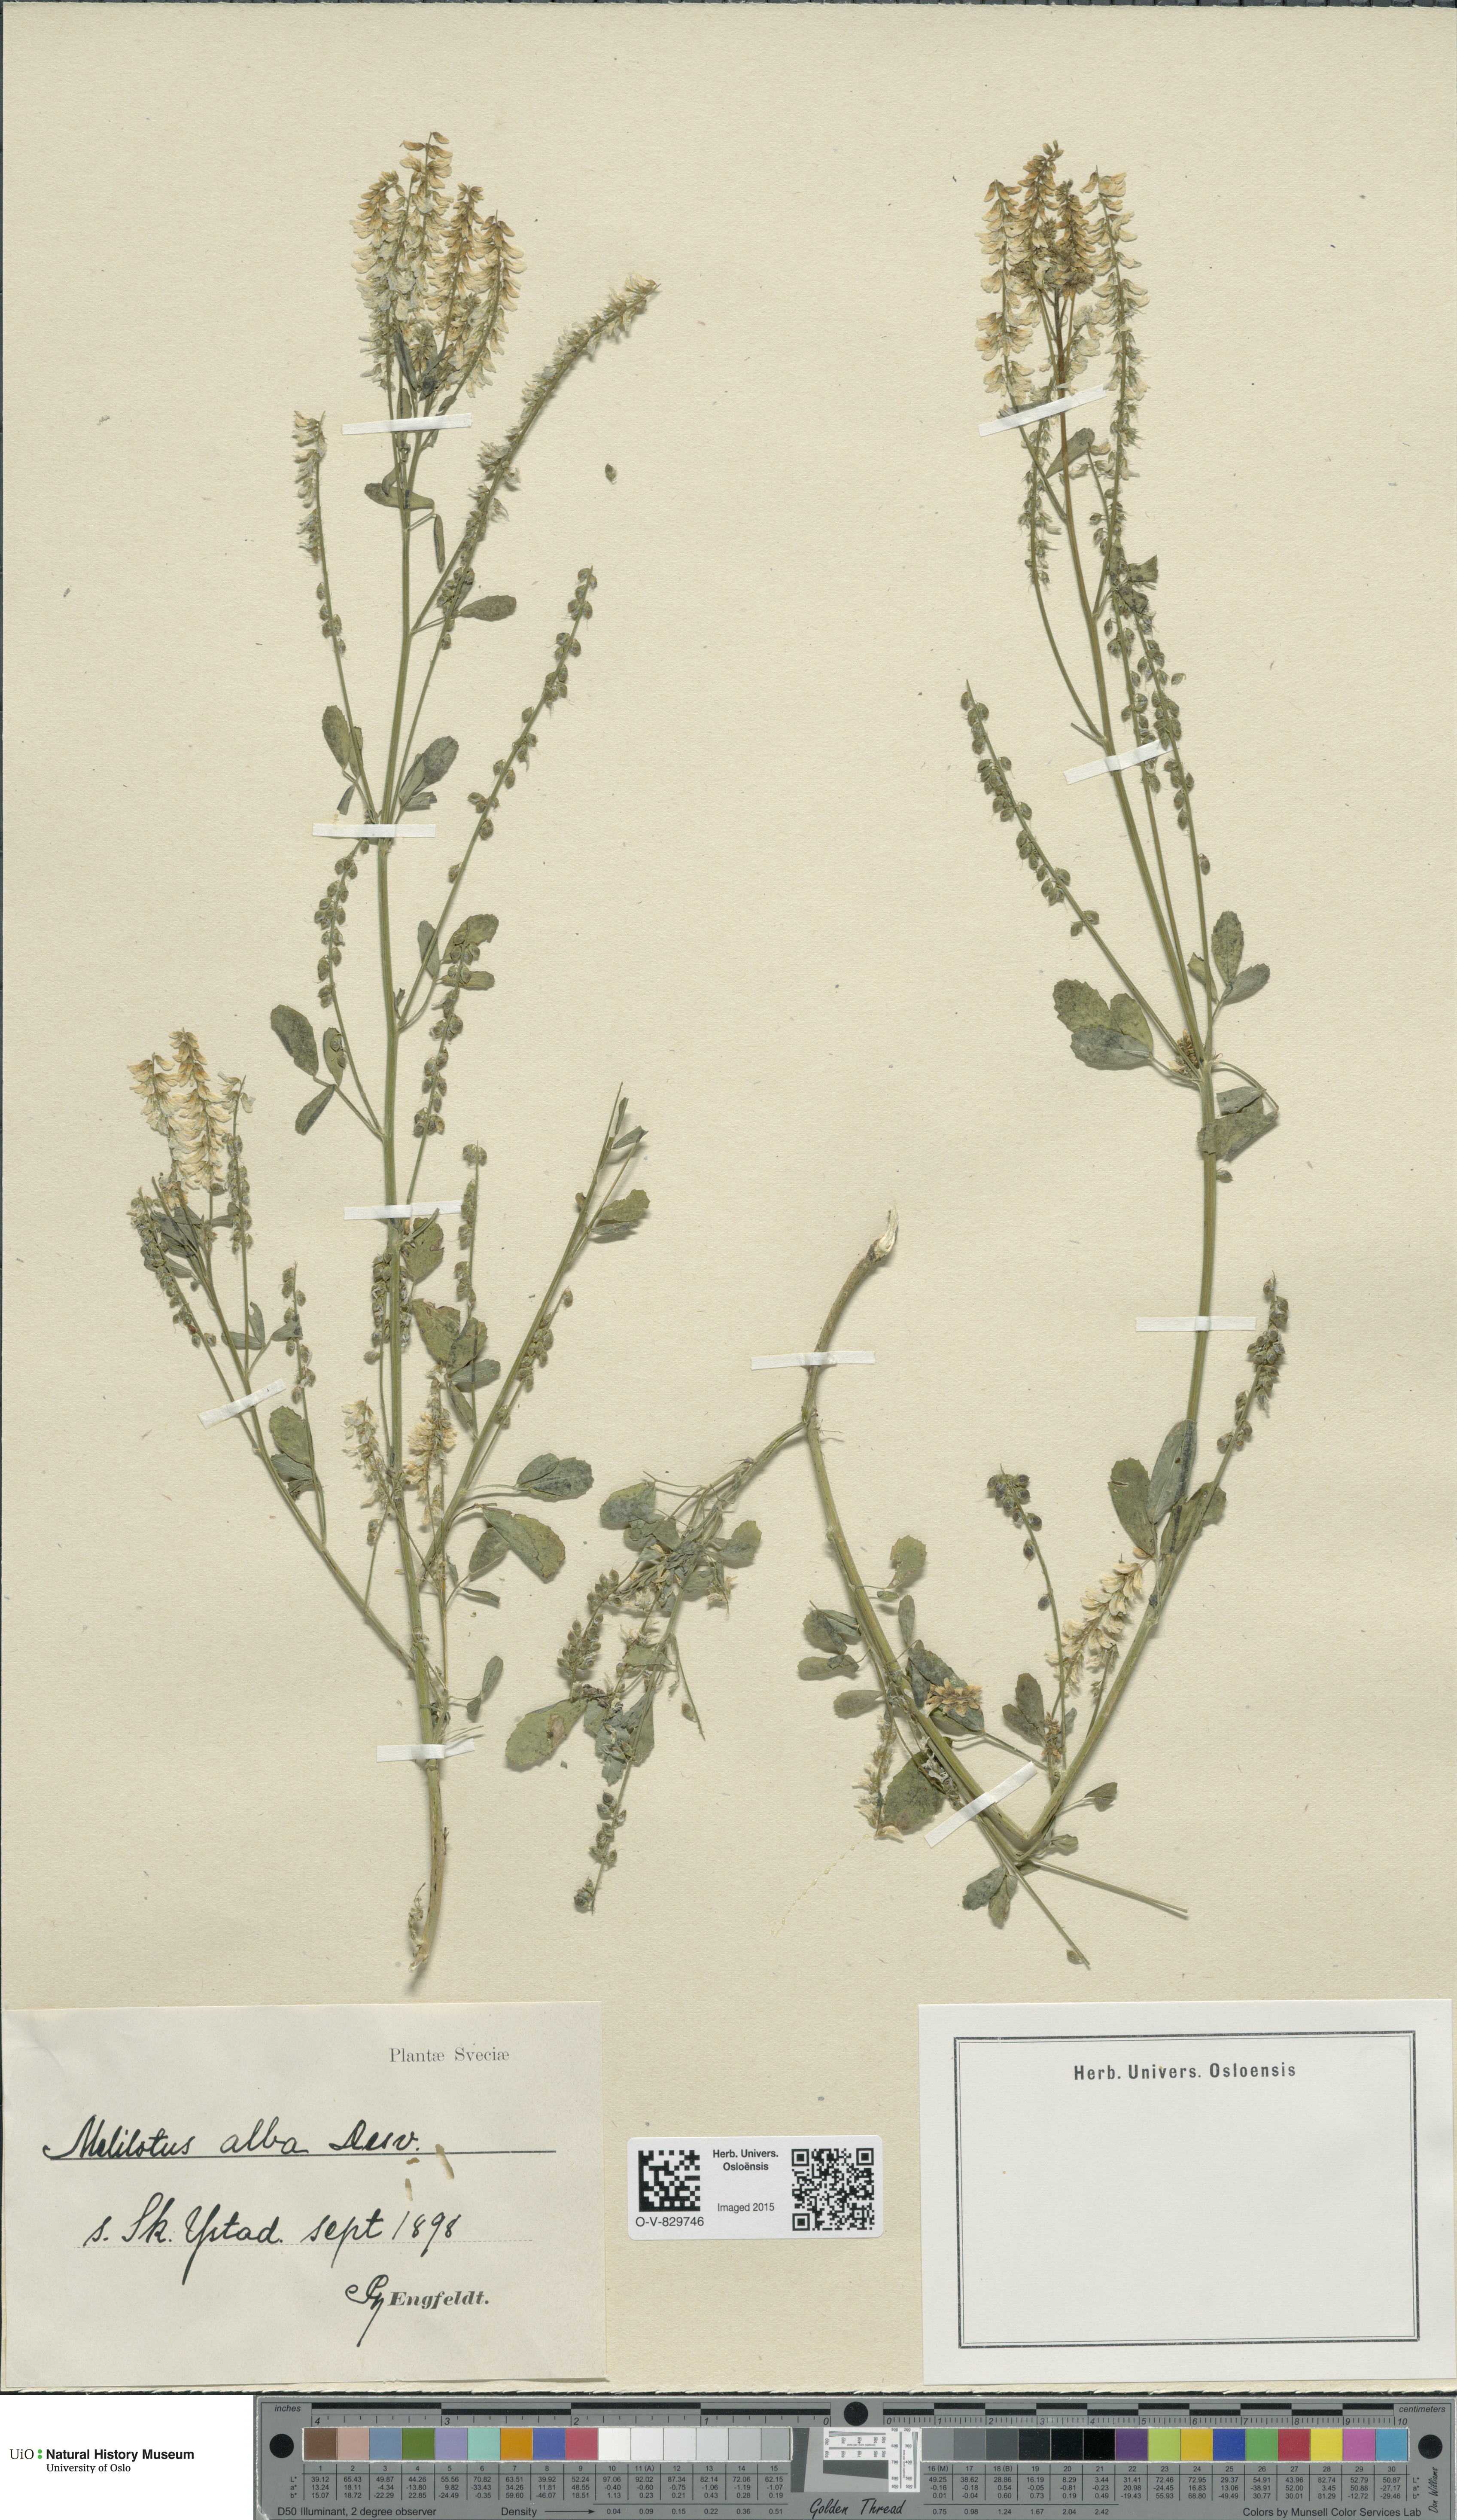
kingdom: Plantae
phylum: Tracheophyta
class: Magnoliopsida
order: Fabales
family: Fabaceae
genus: Melilotus
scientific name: Melilotus albus
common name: White melilot
